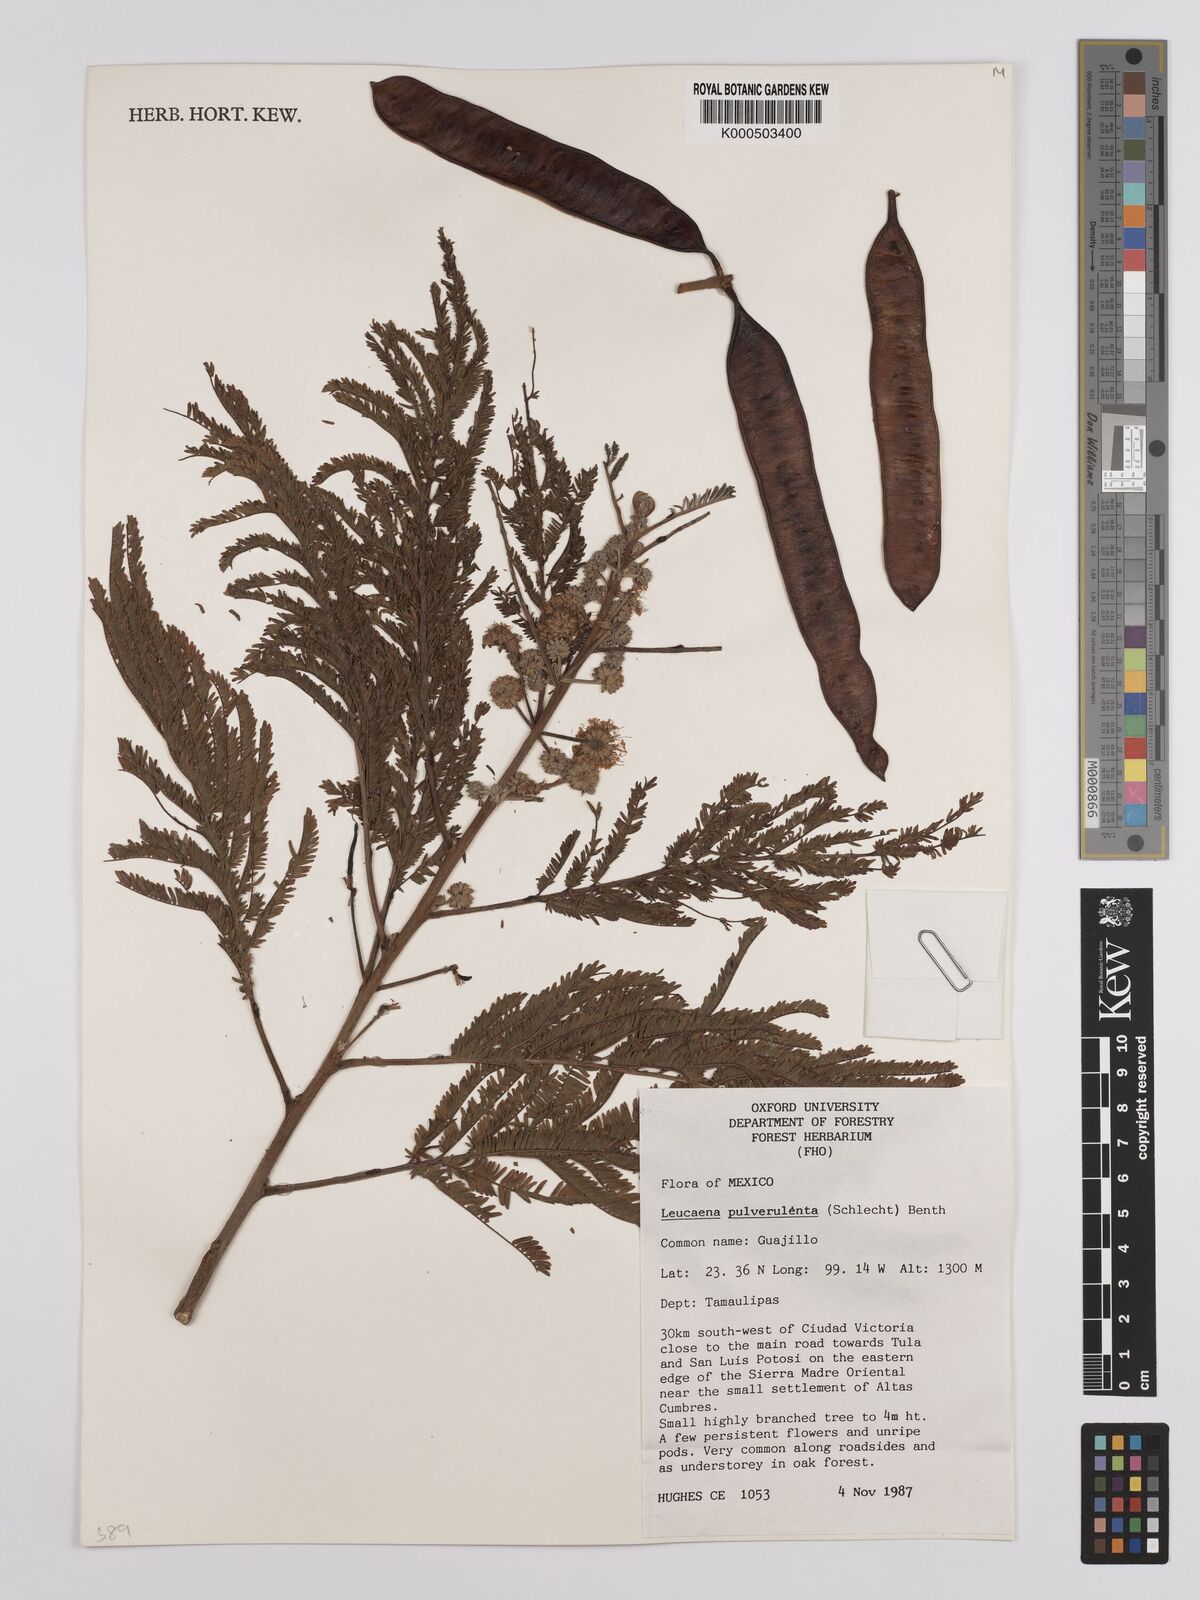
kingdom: Plantae
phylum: Tracheophyta
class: Magnoliopsida
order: Fabales
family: Fabaceae
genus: Leucaena
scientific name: Leucaena pulverulenta
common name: Great leadtree
